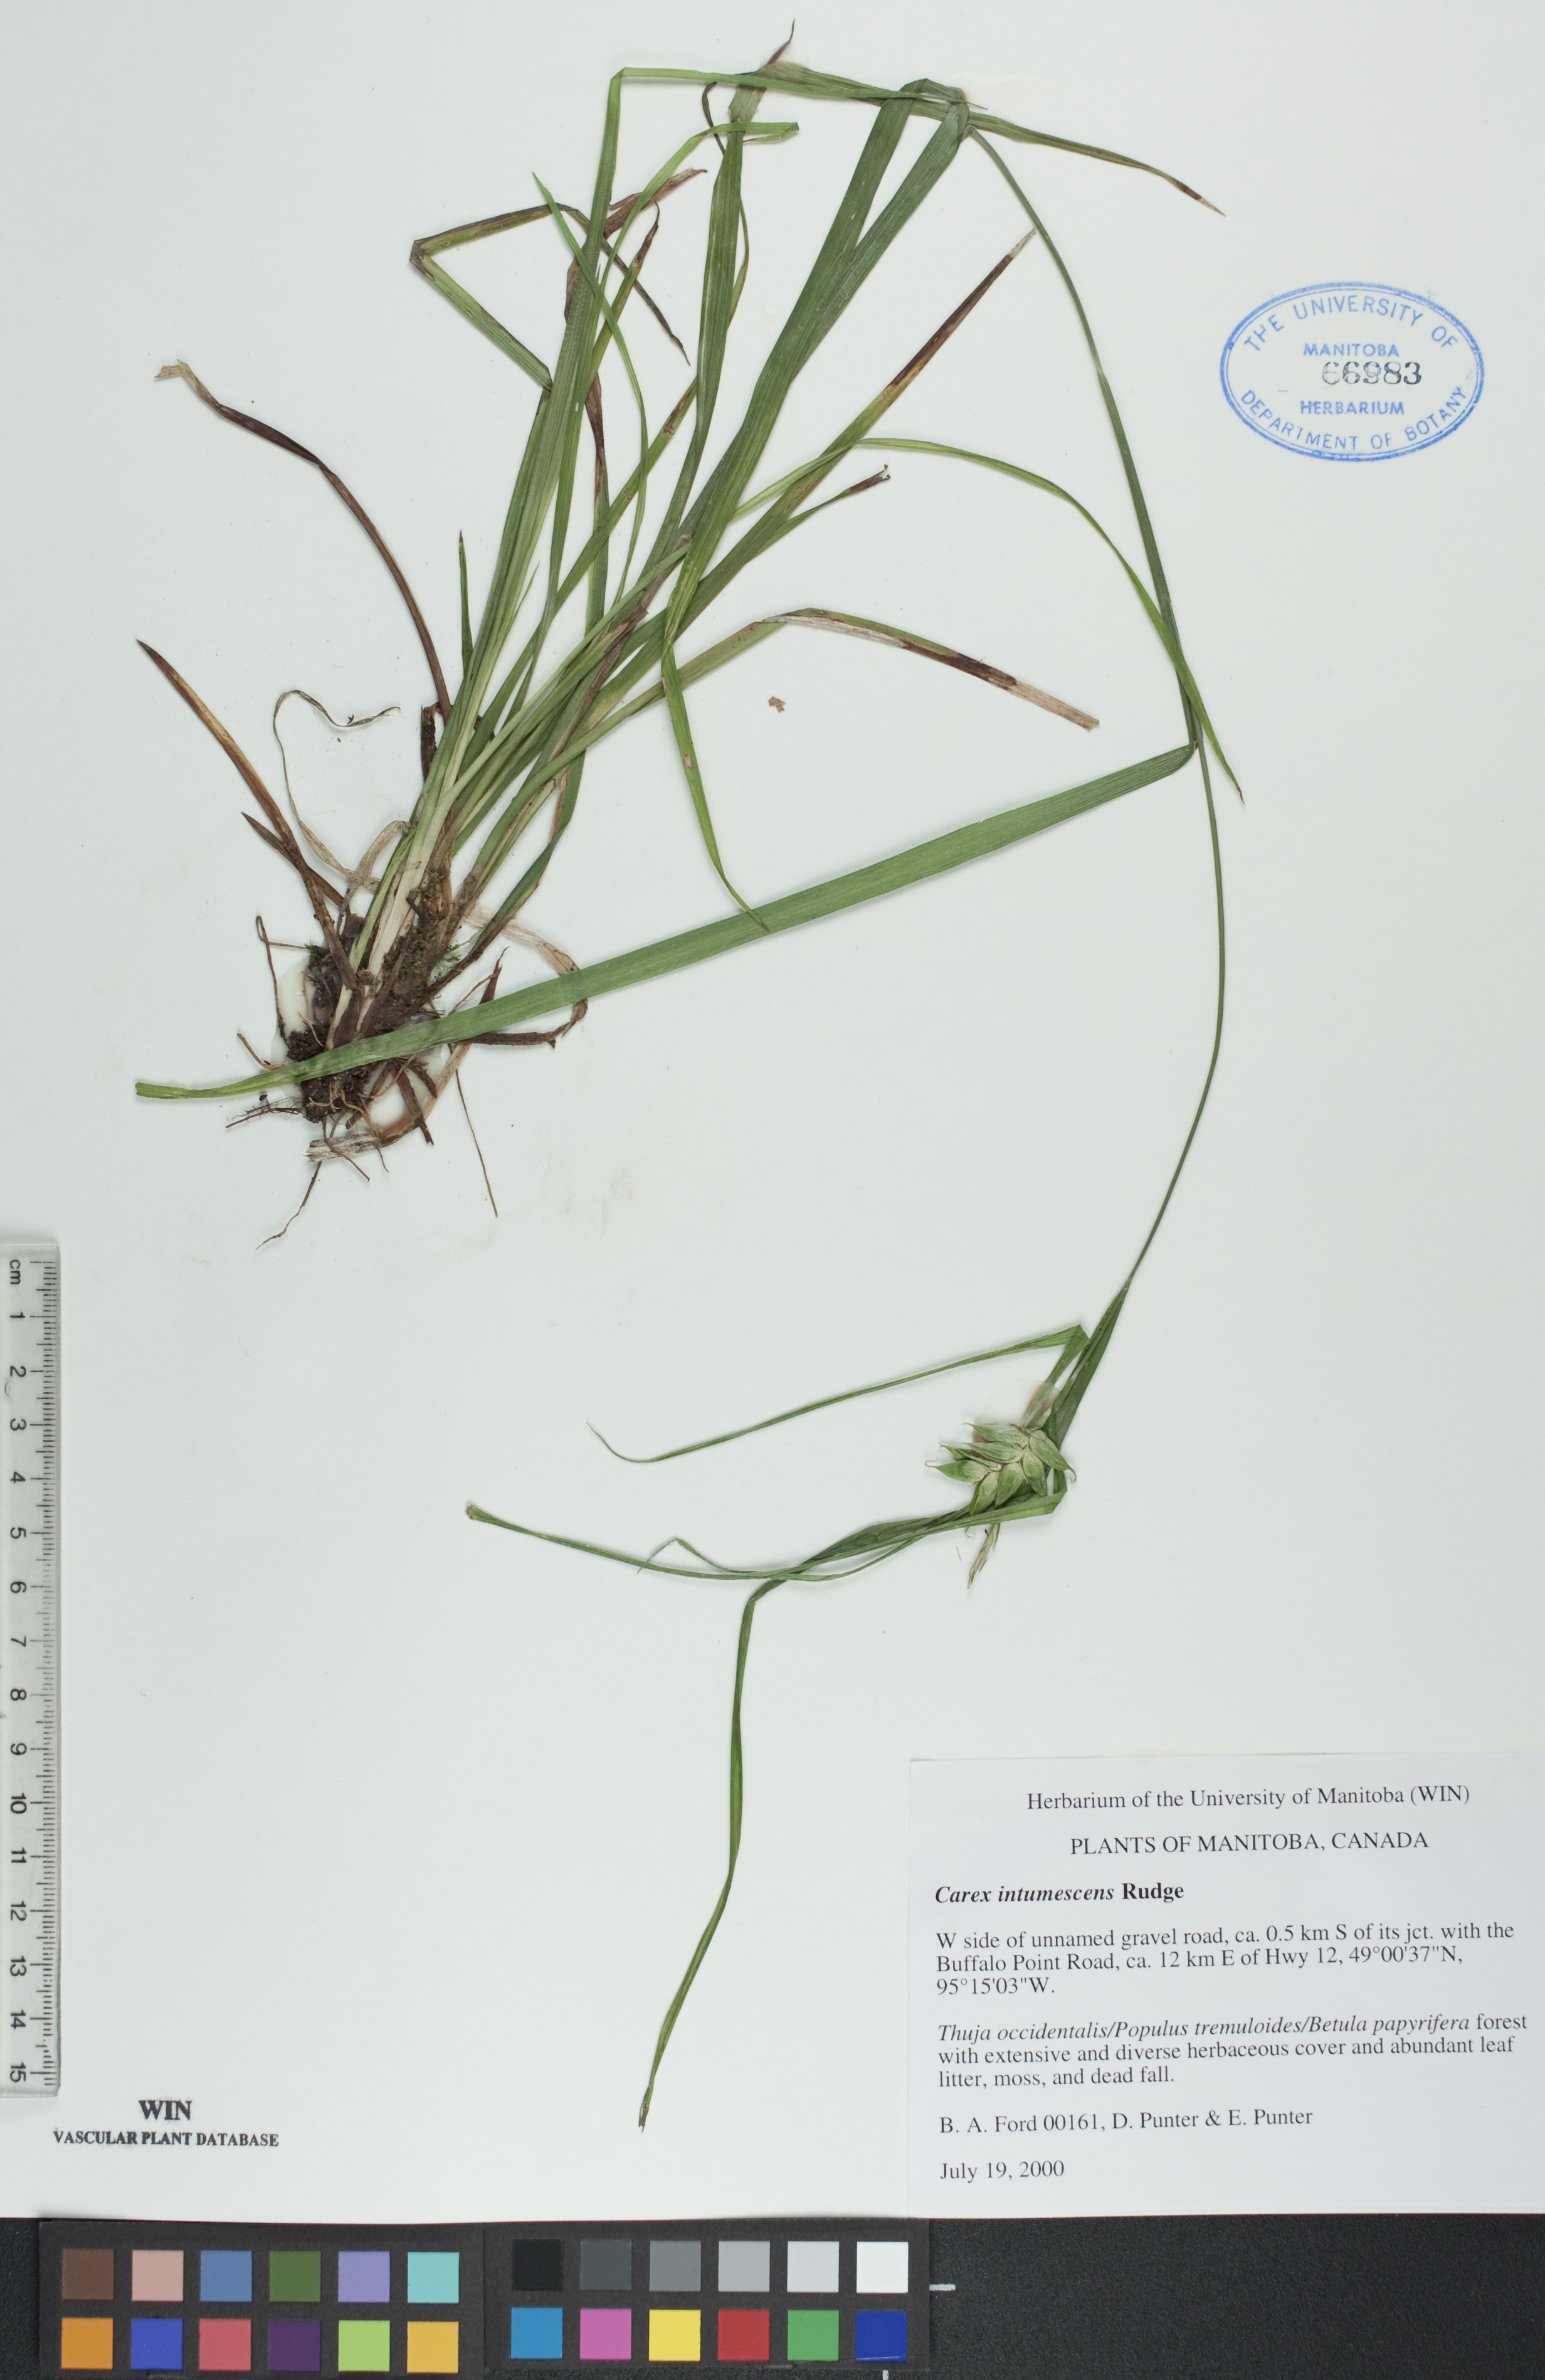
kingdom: Plantae
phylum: Tracheophyta
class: Liliopsida
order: Poales
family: Cyperaceae
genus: Carex
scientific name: Carex intumescens
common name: Greater bladder sedge
